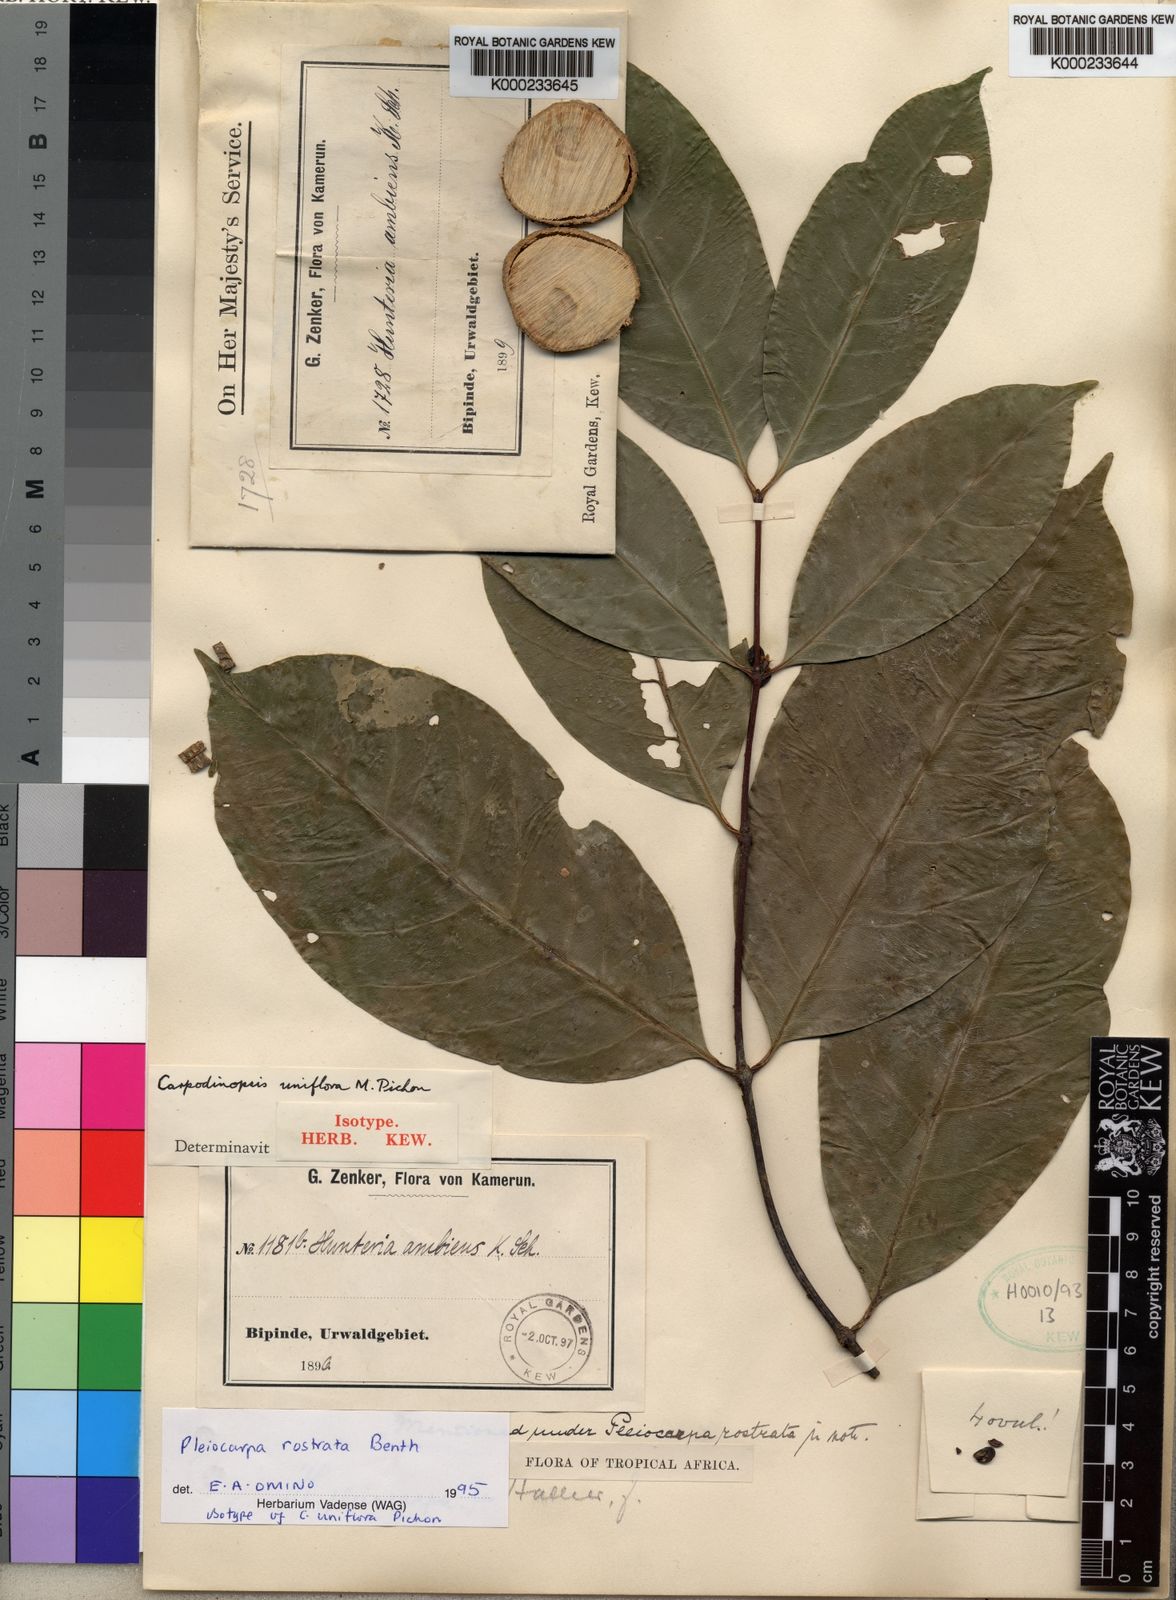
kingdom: Plantae
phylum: Tracheophyta
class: Magnoliopsida
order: Gentianales
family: Apocynaceae
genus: Pleiocarpa
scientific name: Pleiocarpa rostrata
